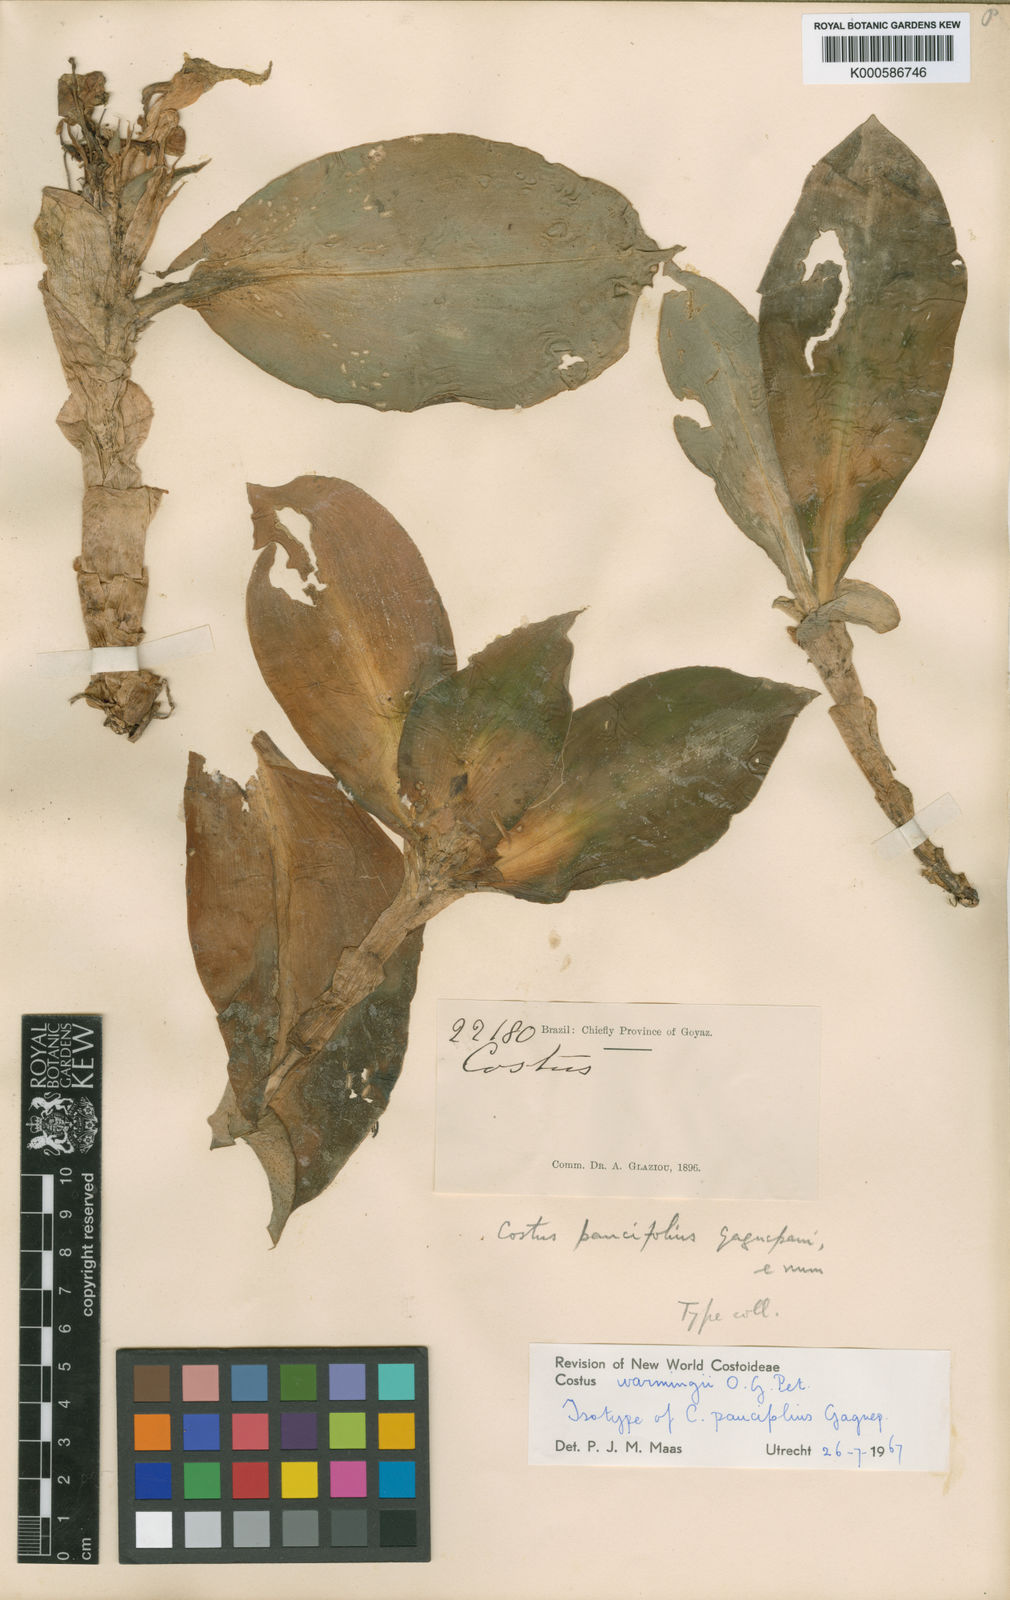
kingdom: Plantae
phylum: Tracheophyta
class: Liliopsida
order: Zingiberales
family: Costaceae
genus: Chamaecostus
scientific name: Chamaecostus subsessilis
